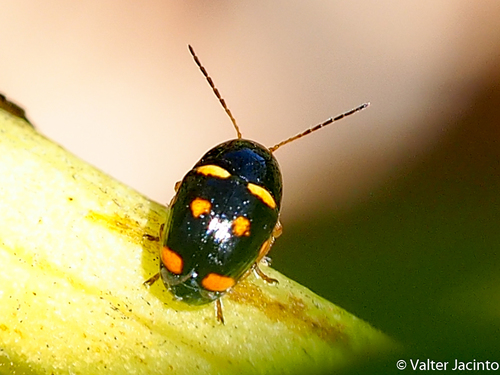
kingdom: Animalia
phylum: Arthropoda
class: Insecta
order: Coleoptera
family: Chrysomelidae
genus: Cryptocephalus
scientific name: Cryptocephalus crassus
